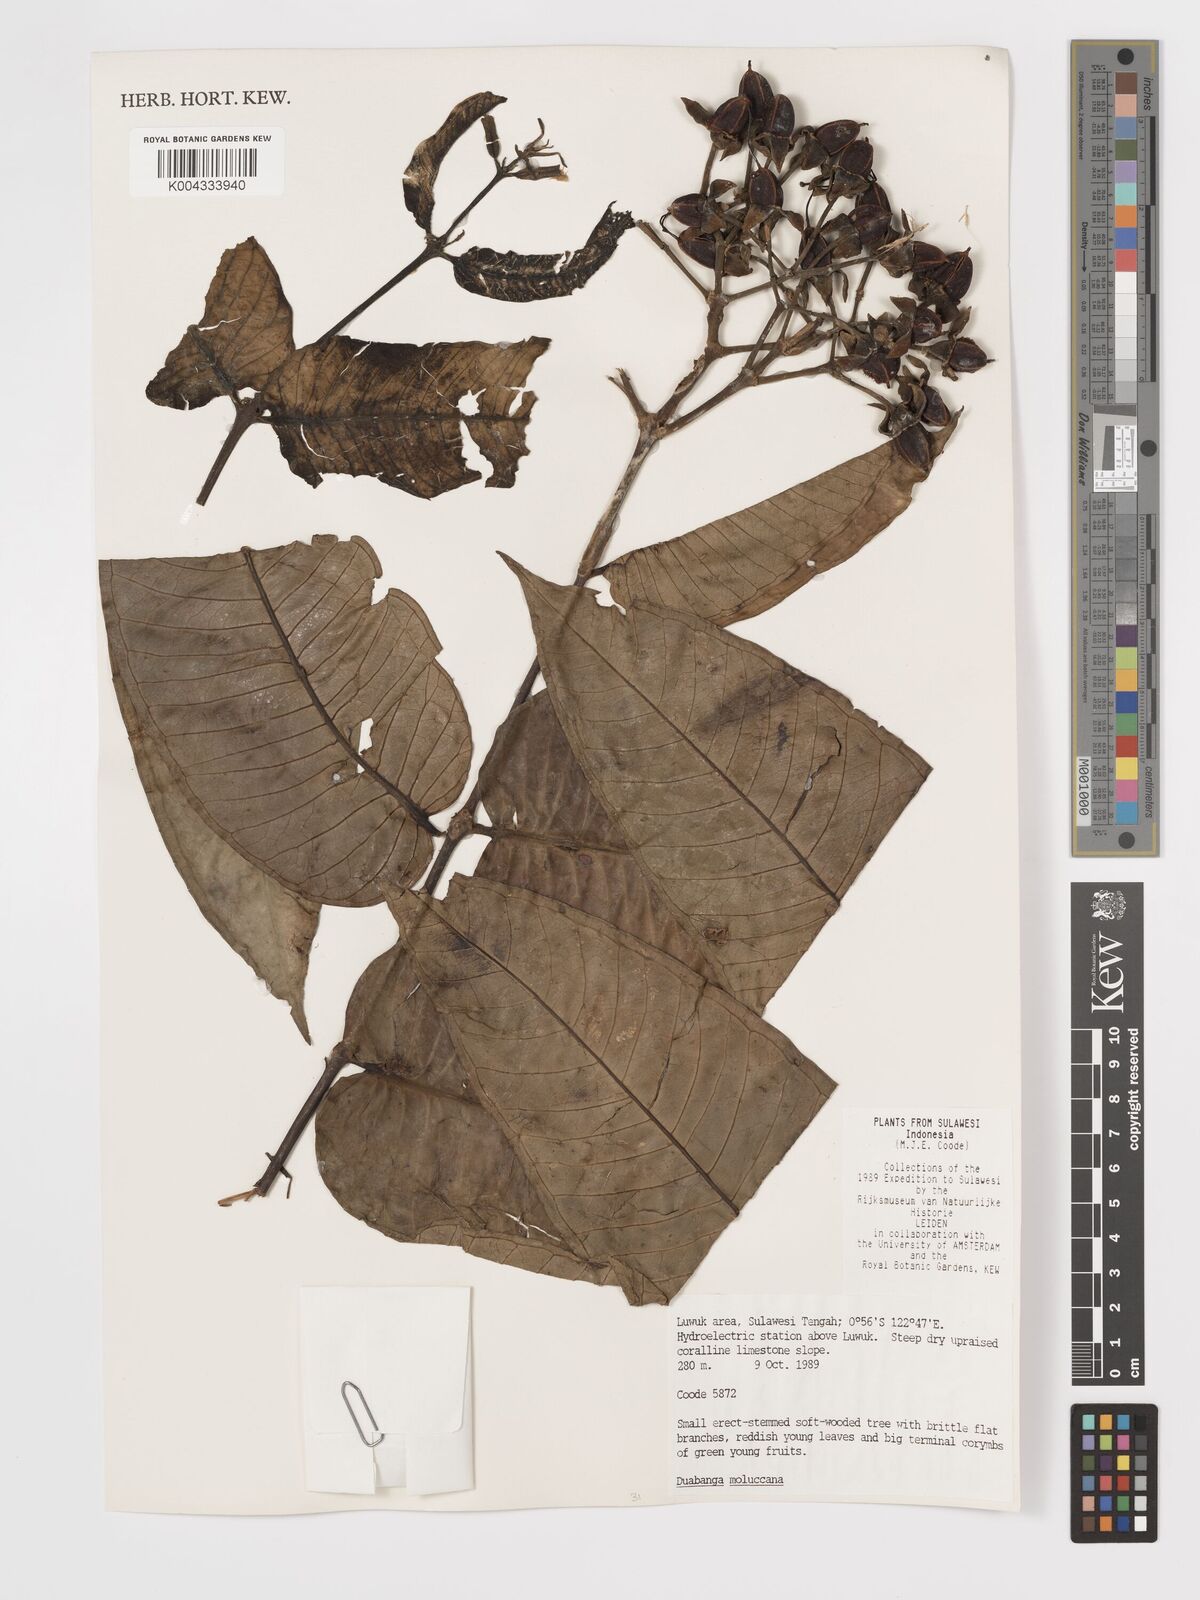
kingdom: Plantae
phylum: Tracheophyta
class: Magnoliopsida
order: Myrtales
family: Lythraceae
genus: Duabanga
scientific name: Duabanga moluccana
